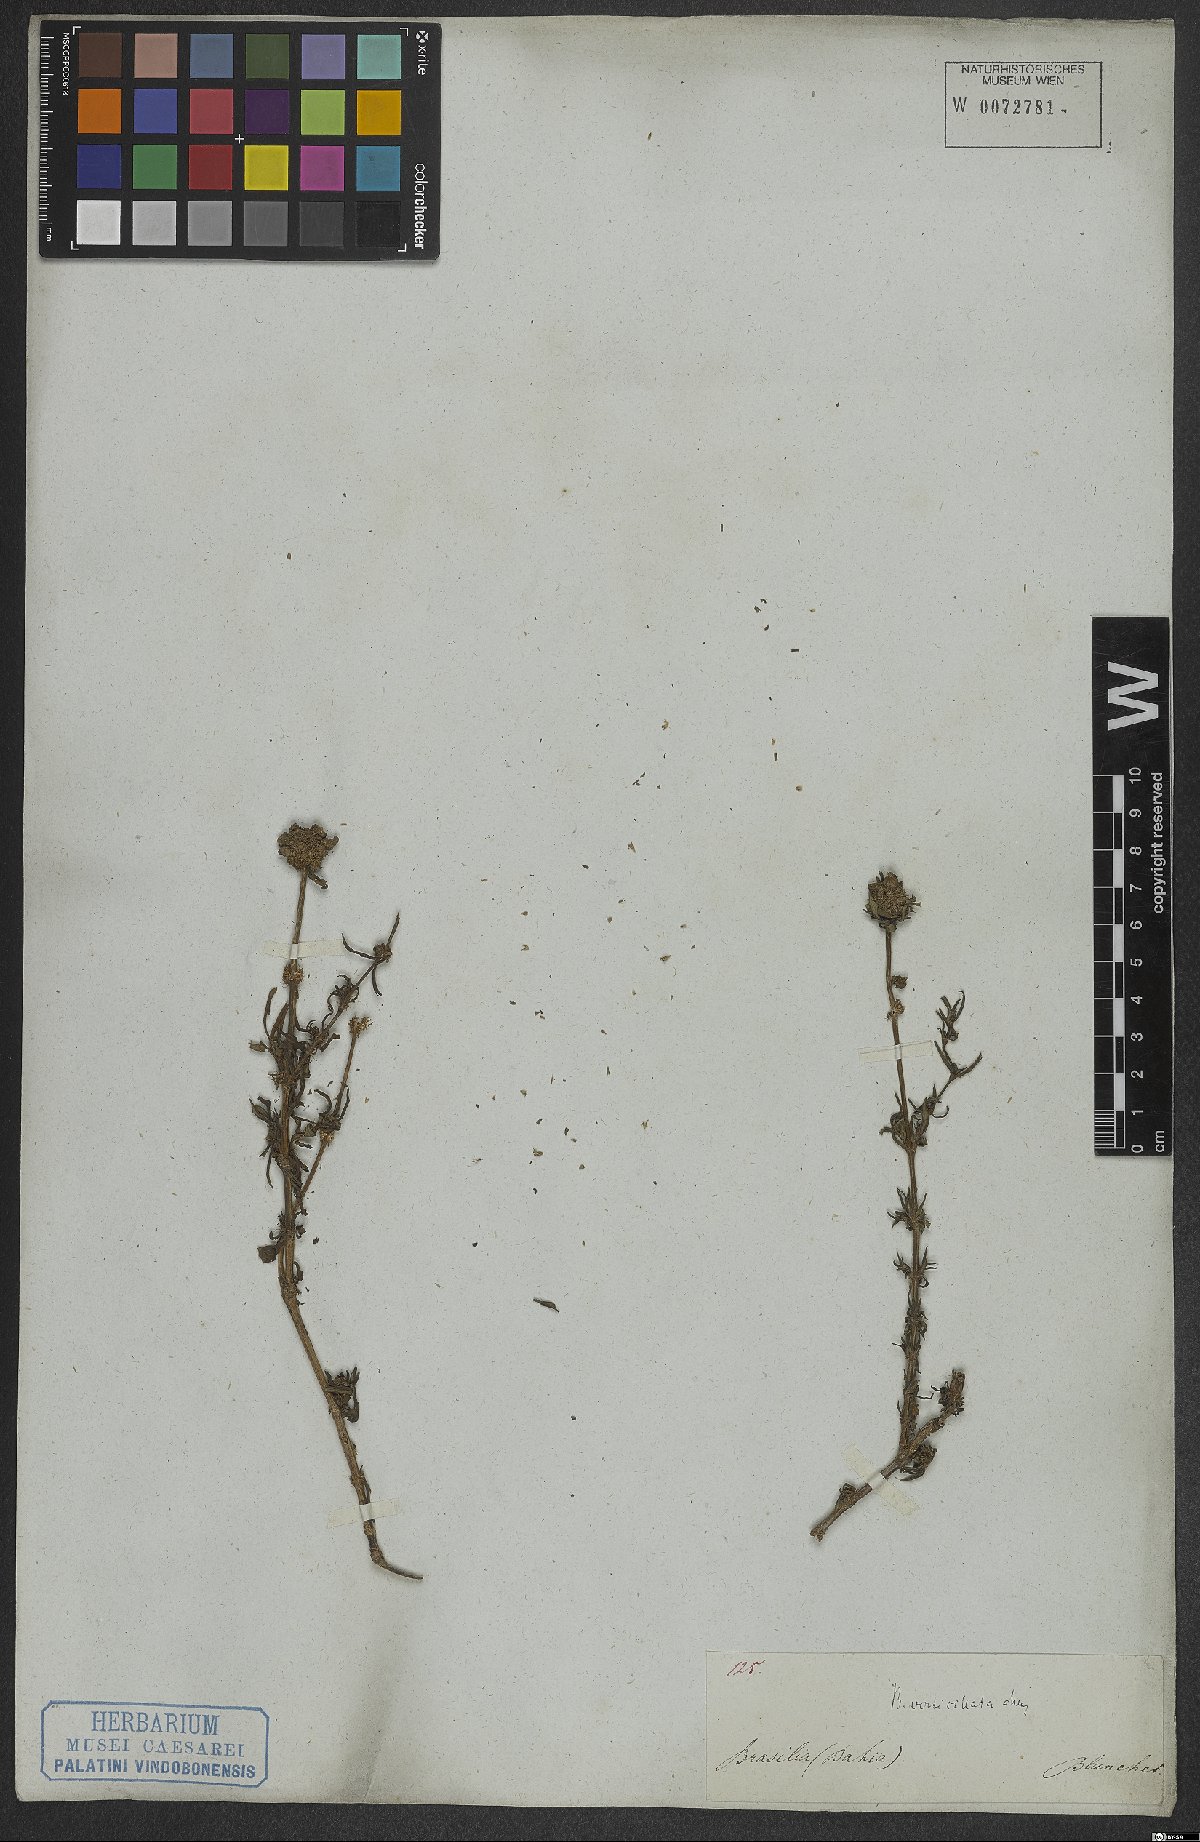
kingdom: Plantae
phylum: Tracheophyta
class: Magnoliopsida
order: Gentianales
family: Rubiaceae
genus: Spermacoce
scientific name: Spermacoce verticillata
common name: Shrubby false buttonweed
